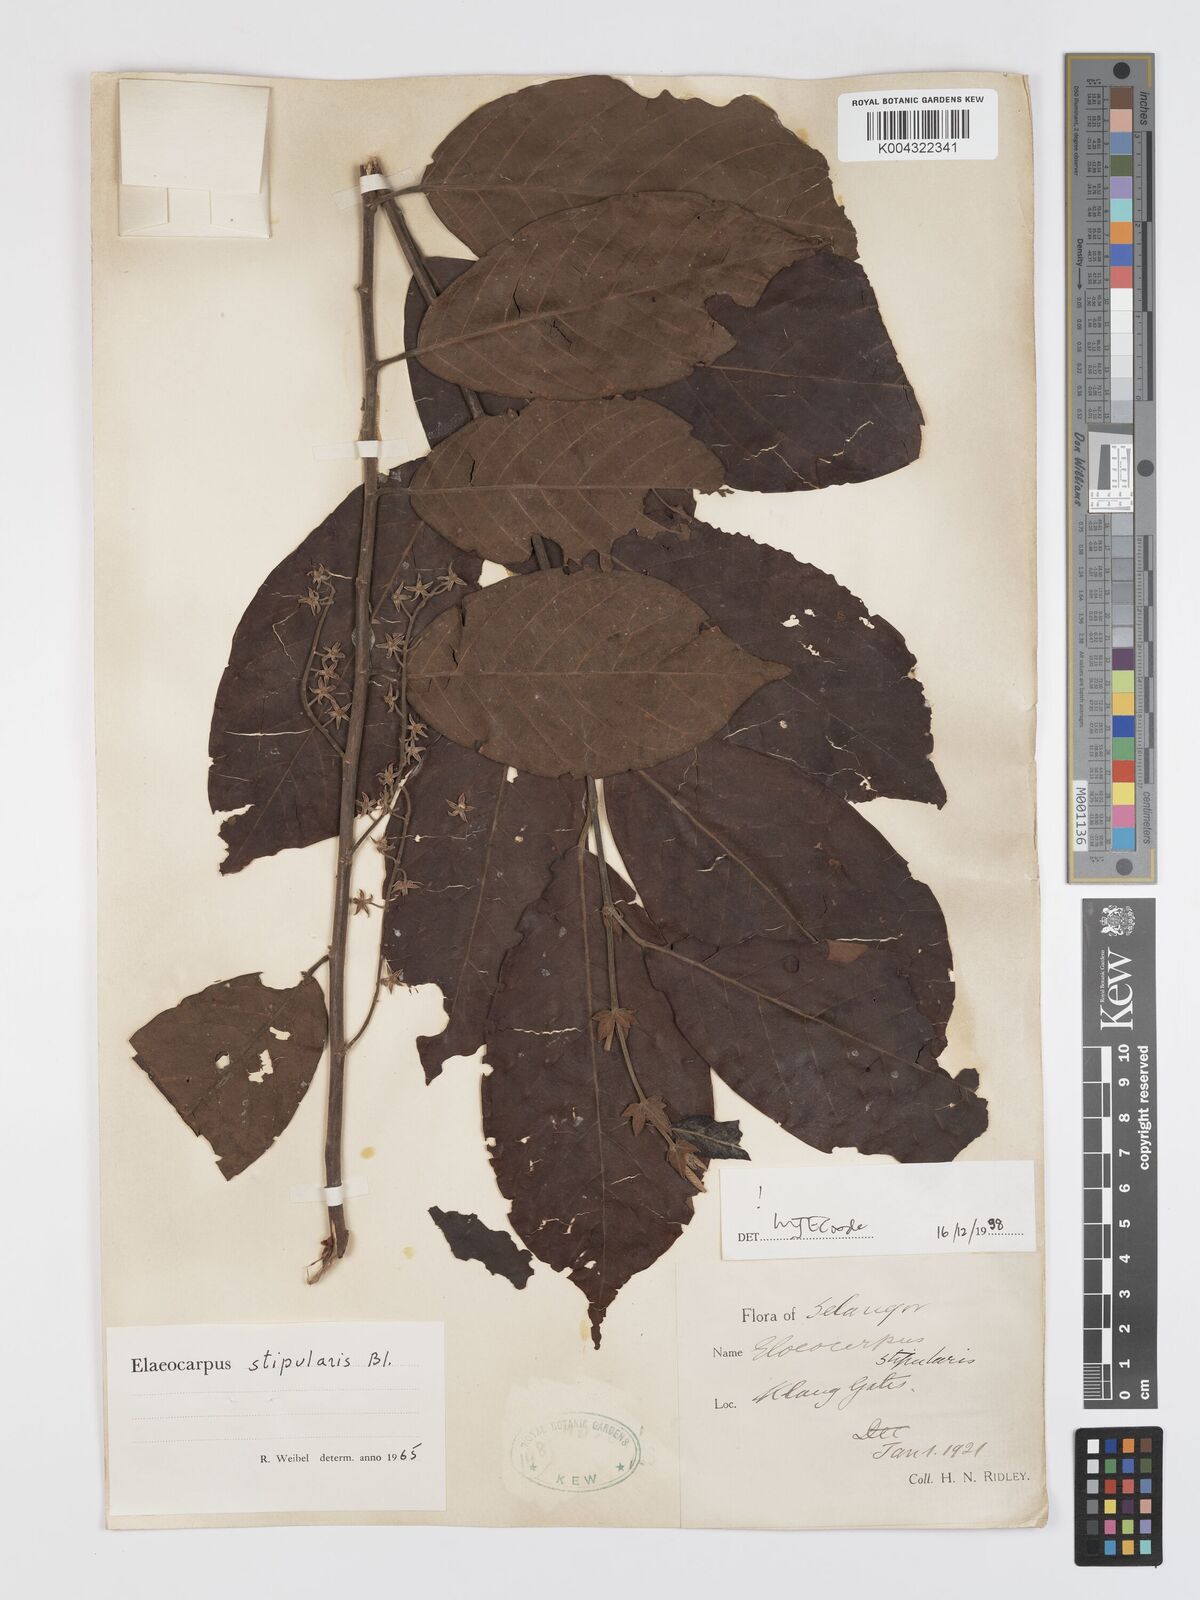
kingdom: Plantae
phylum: Tracheophyta
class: Magnoliopsida
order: Oxalidales
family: Elaeocarpaceae
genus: Elaeocarpus
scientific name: Elaeocarpus stipularis
